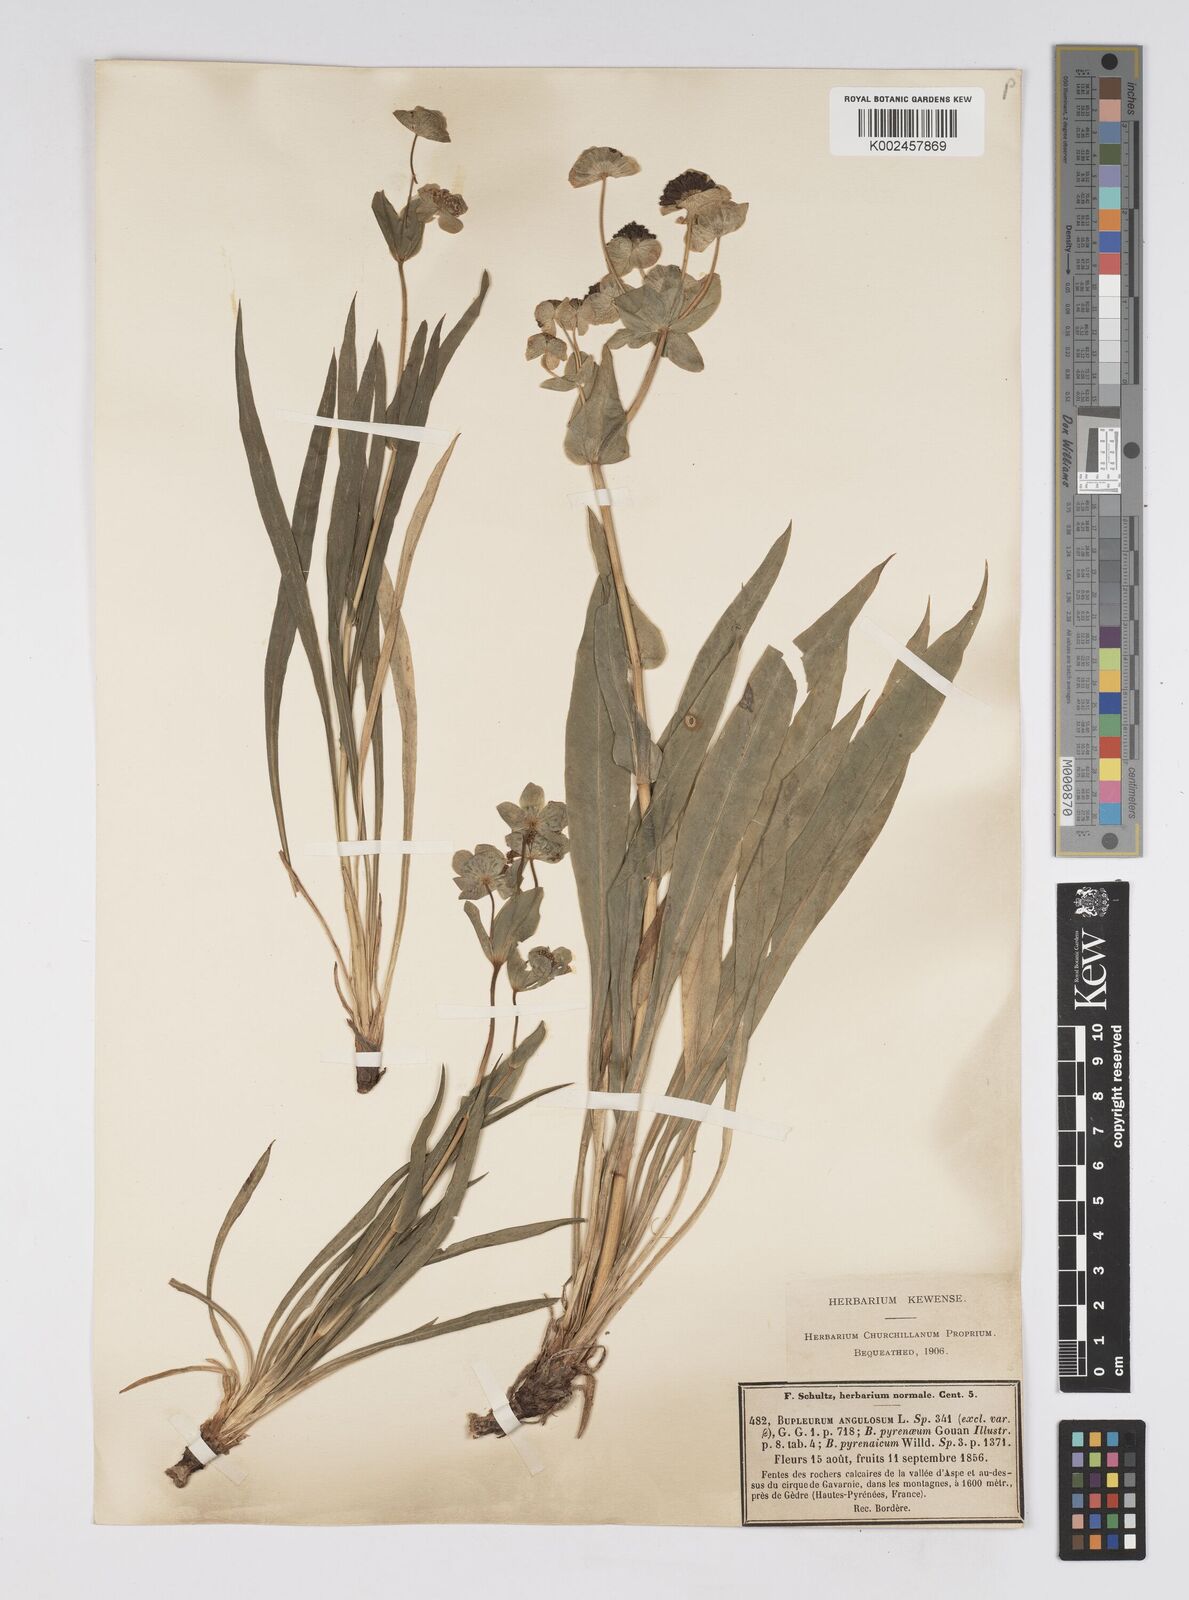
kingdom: Plantae
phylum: Tracheophyta
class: Magnoliopsida
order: Apiales
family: Apiaceae
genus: Bupleurum
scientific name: Bupleurum angulosum
